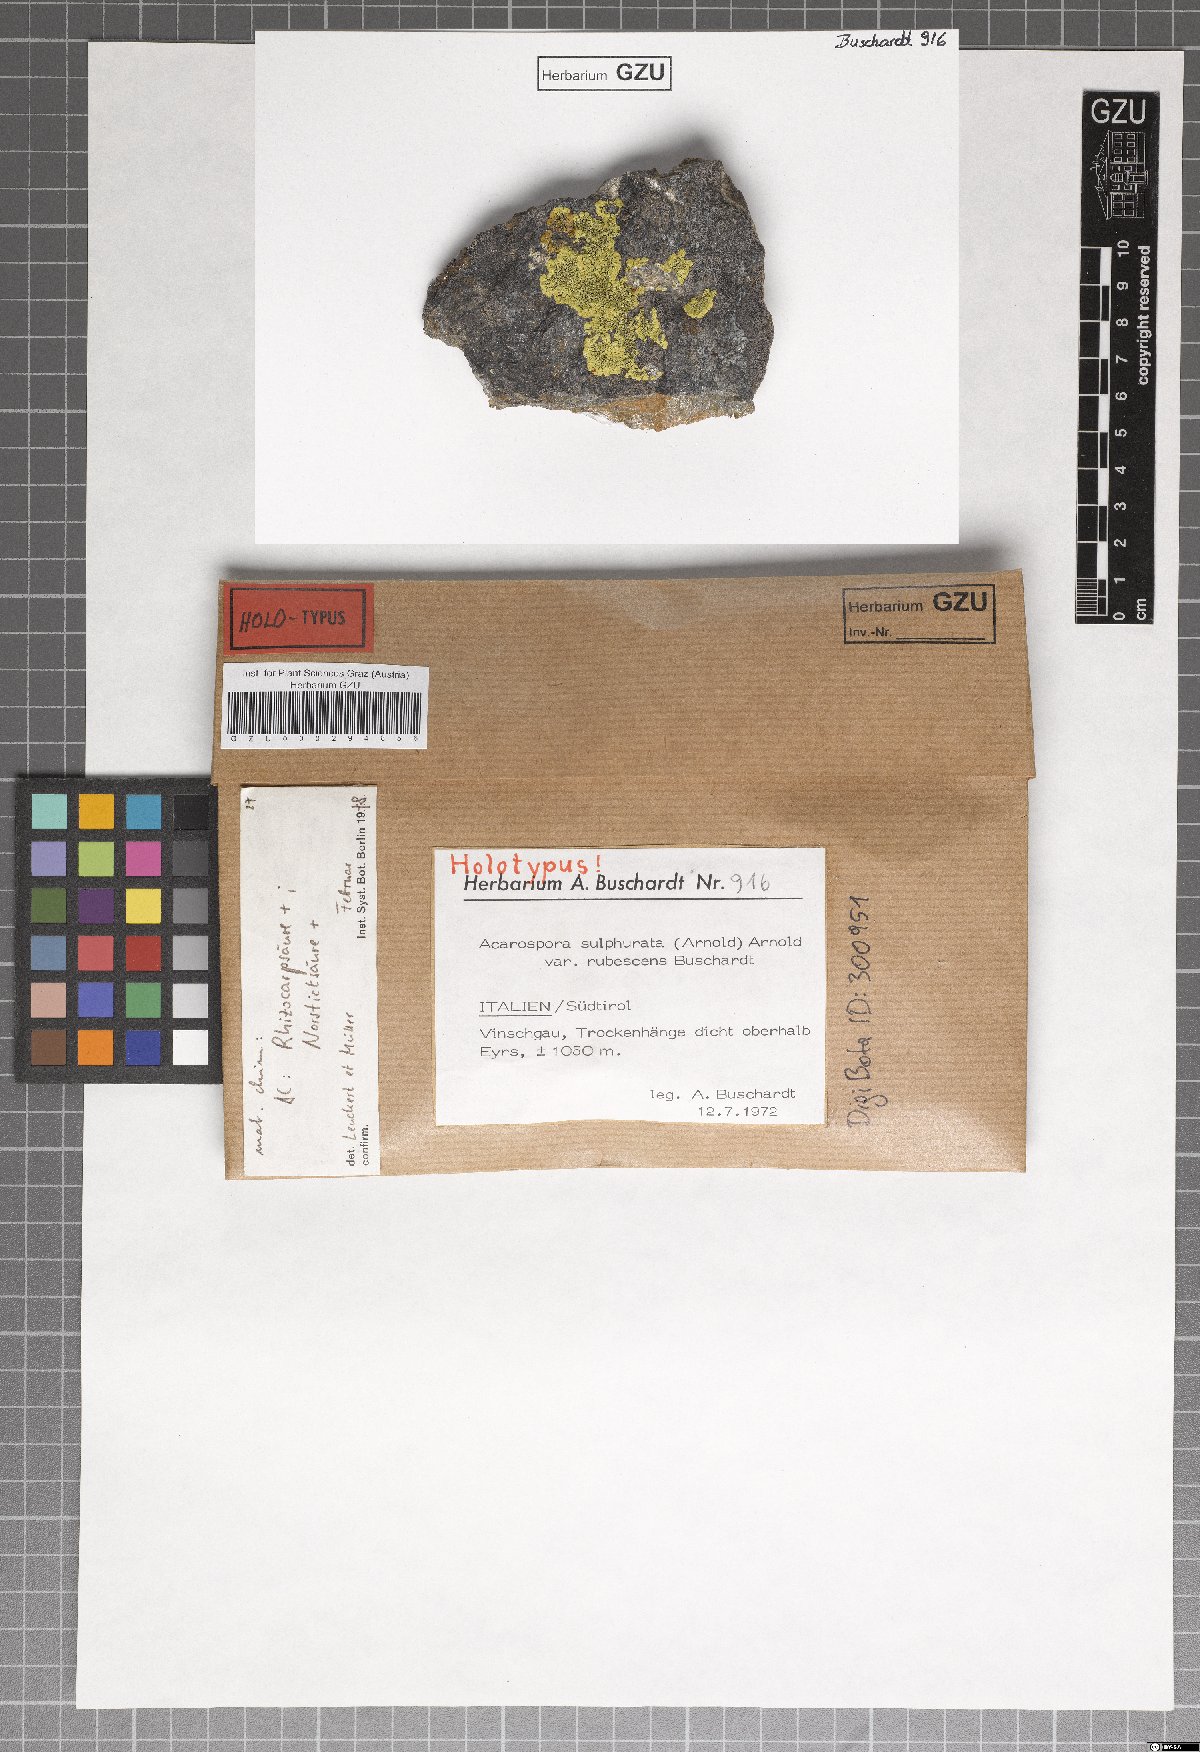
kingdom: Fungi
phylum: Ascomycota
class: Lecanoromycetes
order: Acarosporales
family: Acarosporaceae
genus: Acarospora
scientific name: Acarospora sulphurata
